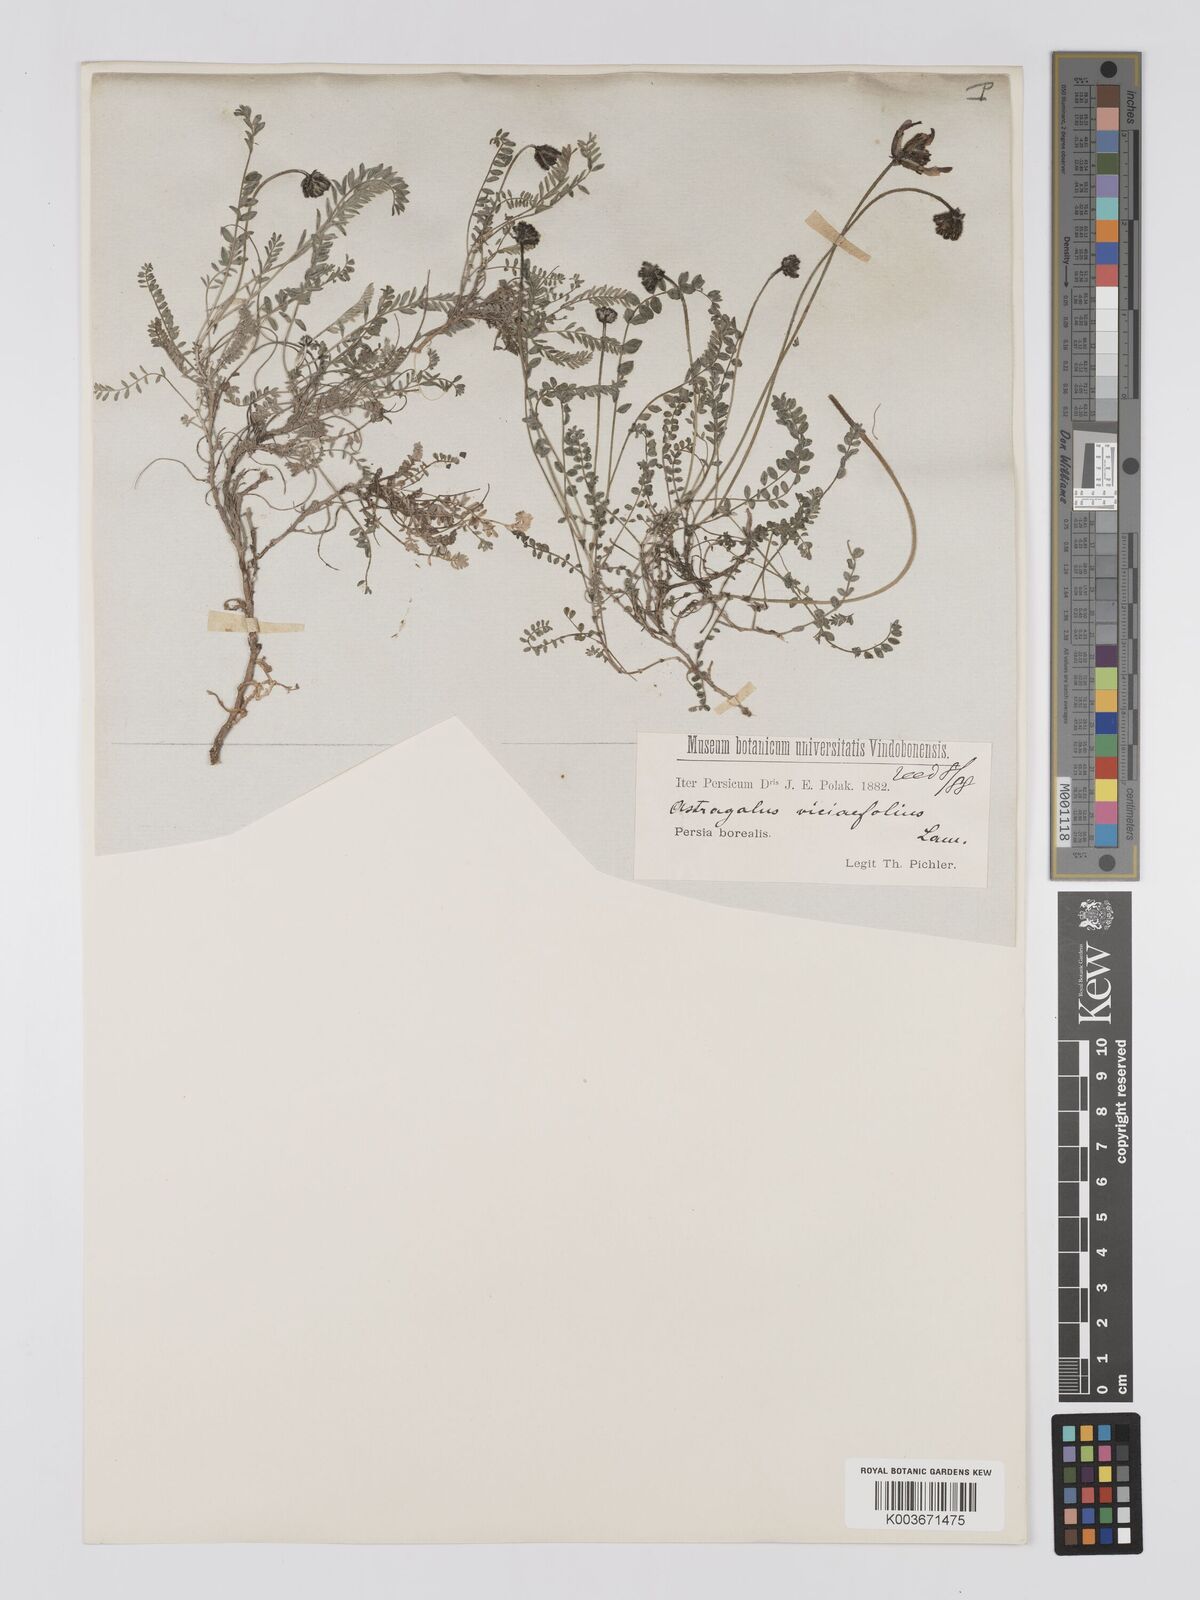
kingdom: Plantae
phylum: Tracheophyta
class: Magnoliopsida
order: Fabales
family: Fabaceae
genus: Astragalus
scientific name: Astragalus humifusus
